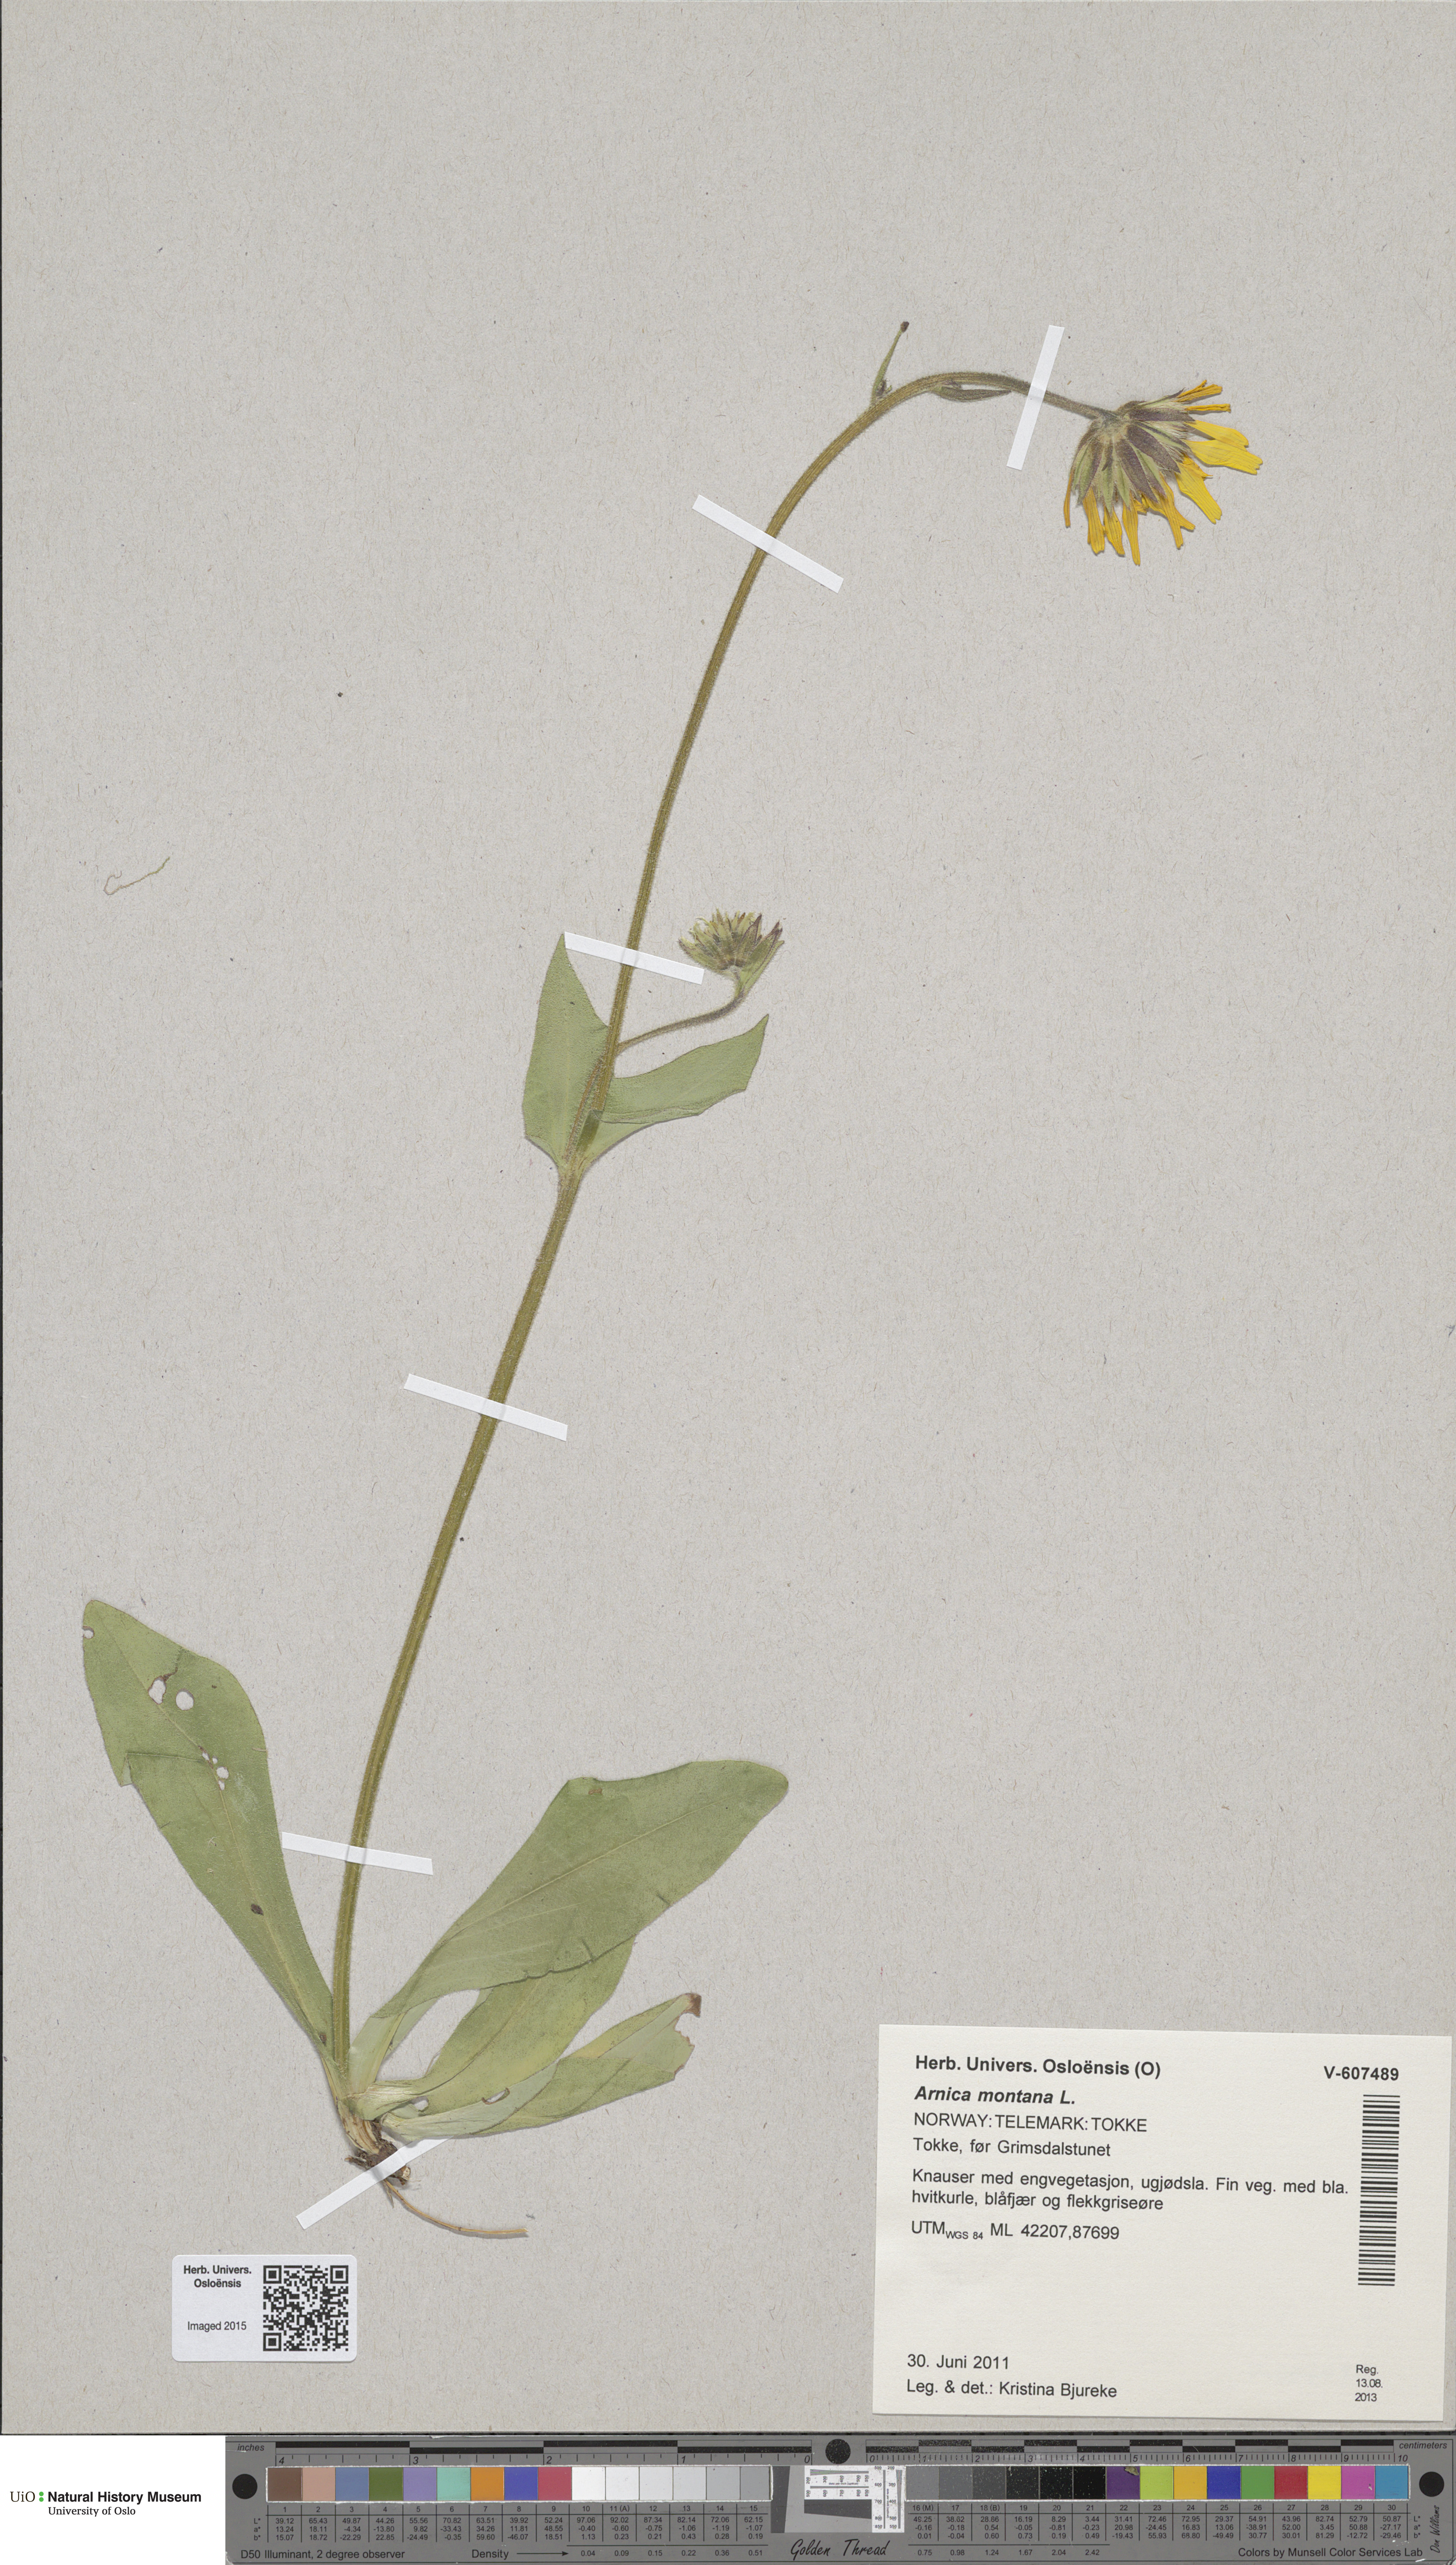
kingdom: Plantae
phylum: Tracheophyta
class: Magnoliopsida
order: Asterales
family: Asteraceae
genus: Arnica
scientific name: Arnica montana
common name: Leopard's bane
